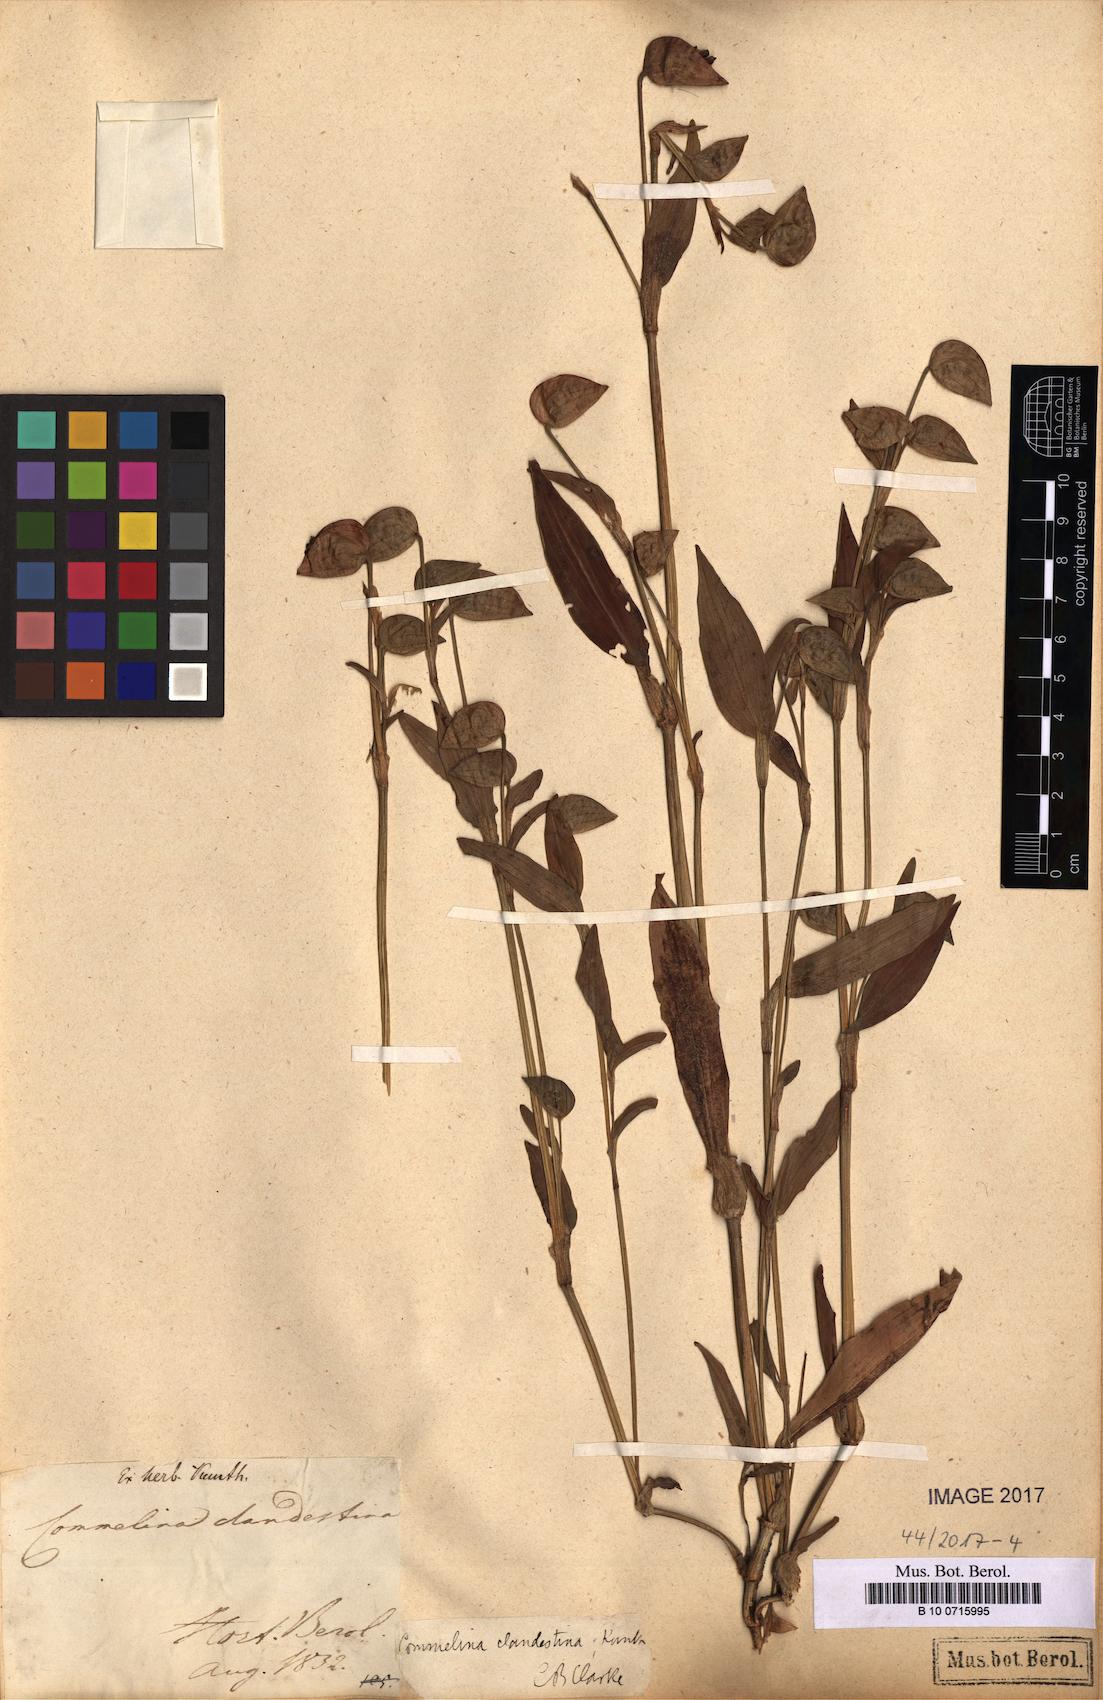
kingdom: Plantae
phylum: Tracheophyta
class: Liliopsida
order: Commelinales
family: Commelinaceae
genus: Commelina
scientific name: Commelina tuberosa
